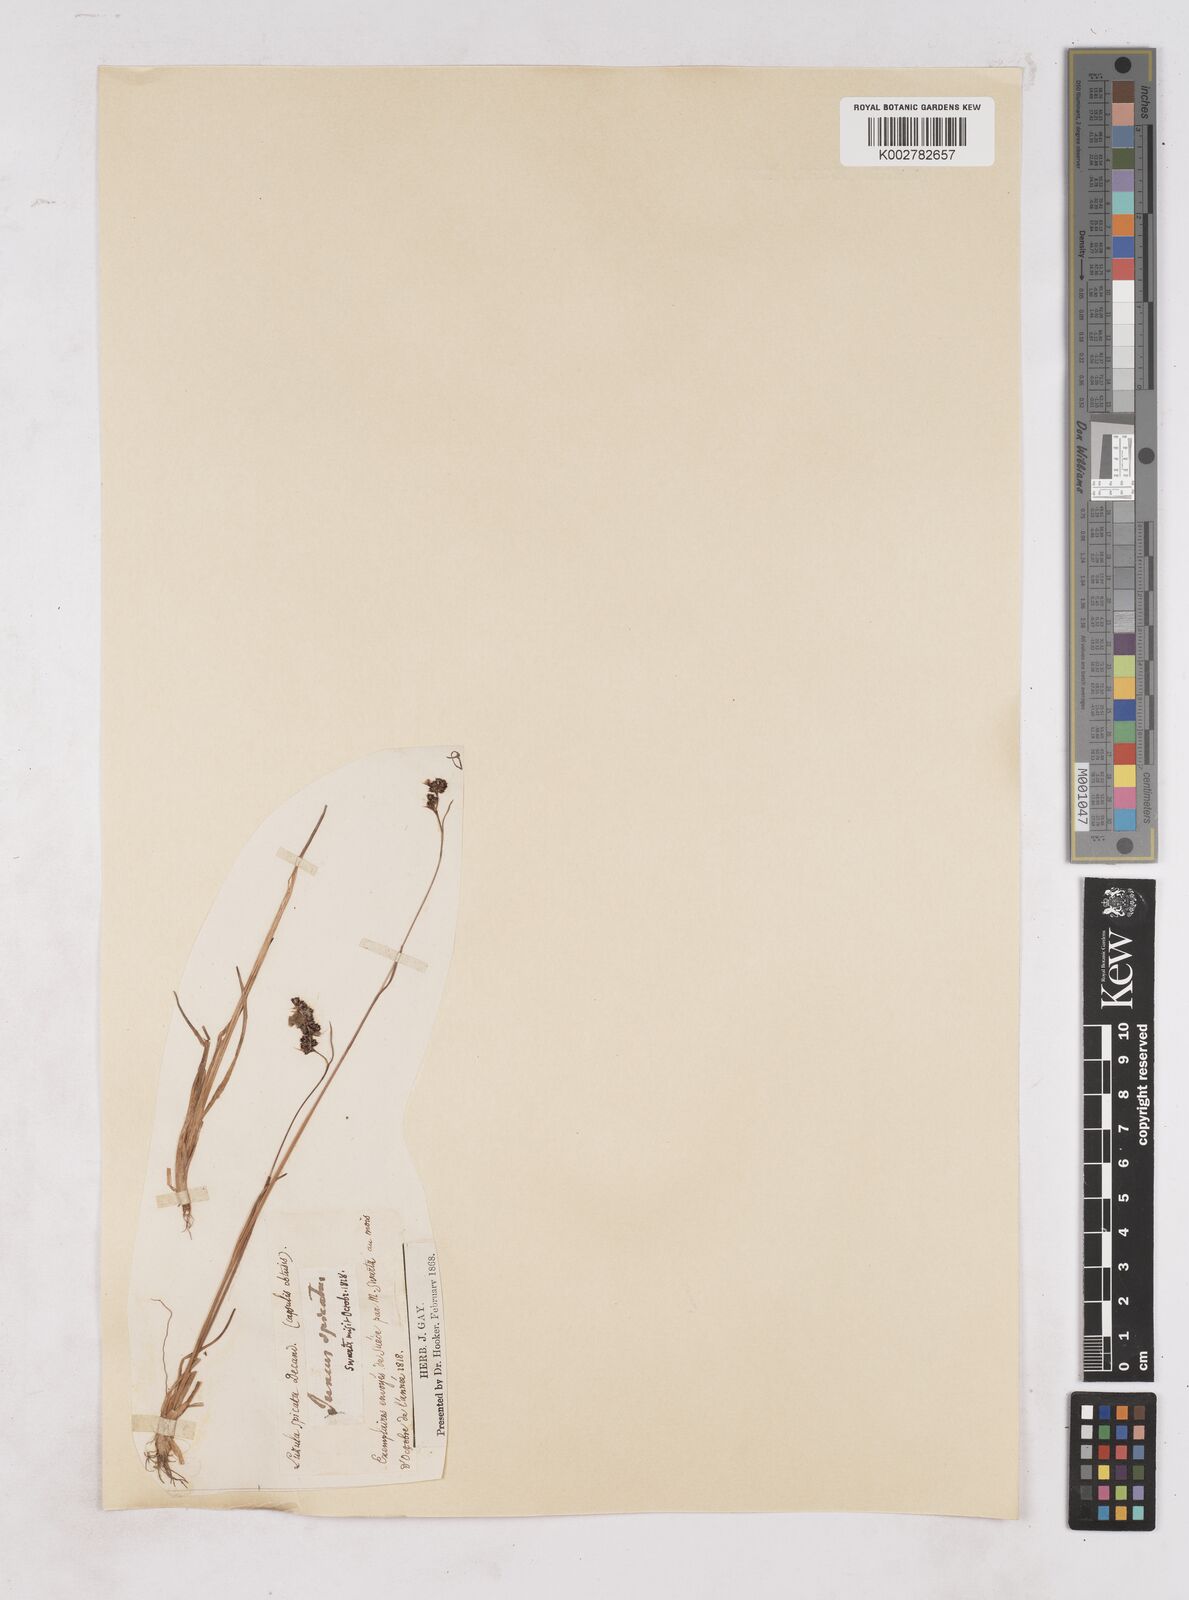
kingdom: Plantae
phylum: Tracheophyta
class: Liliopsida
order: Poales
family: Juncaceae
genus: Luzula
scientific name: Luzula spicata
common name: Spiked wood-rush
